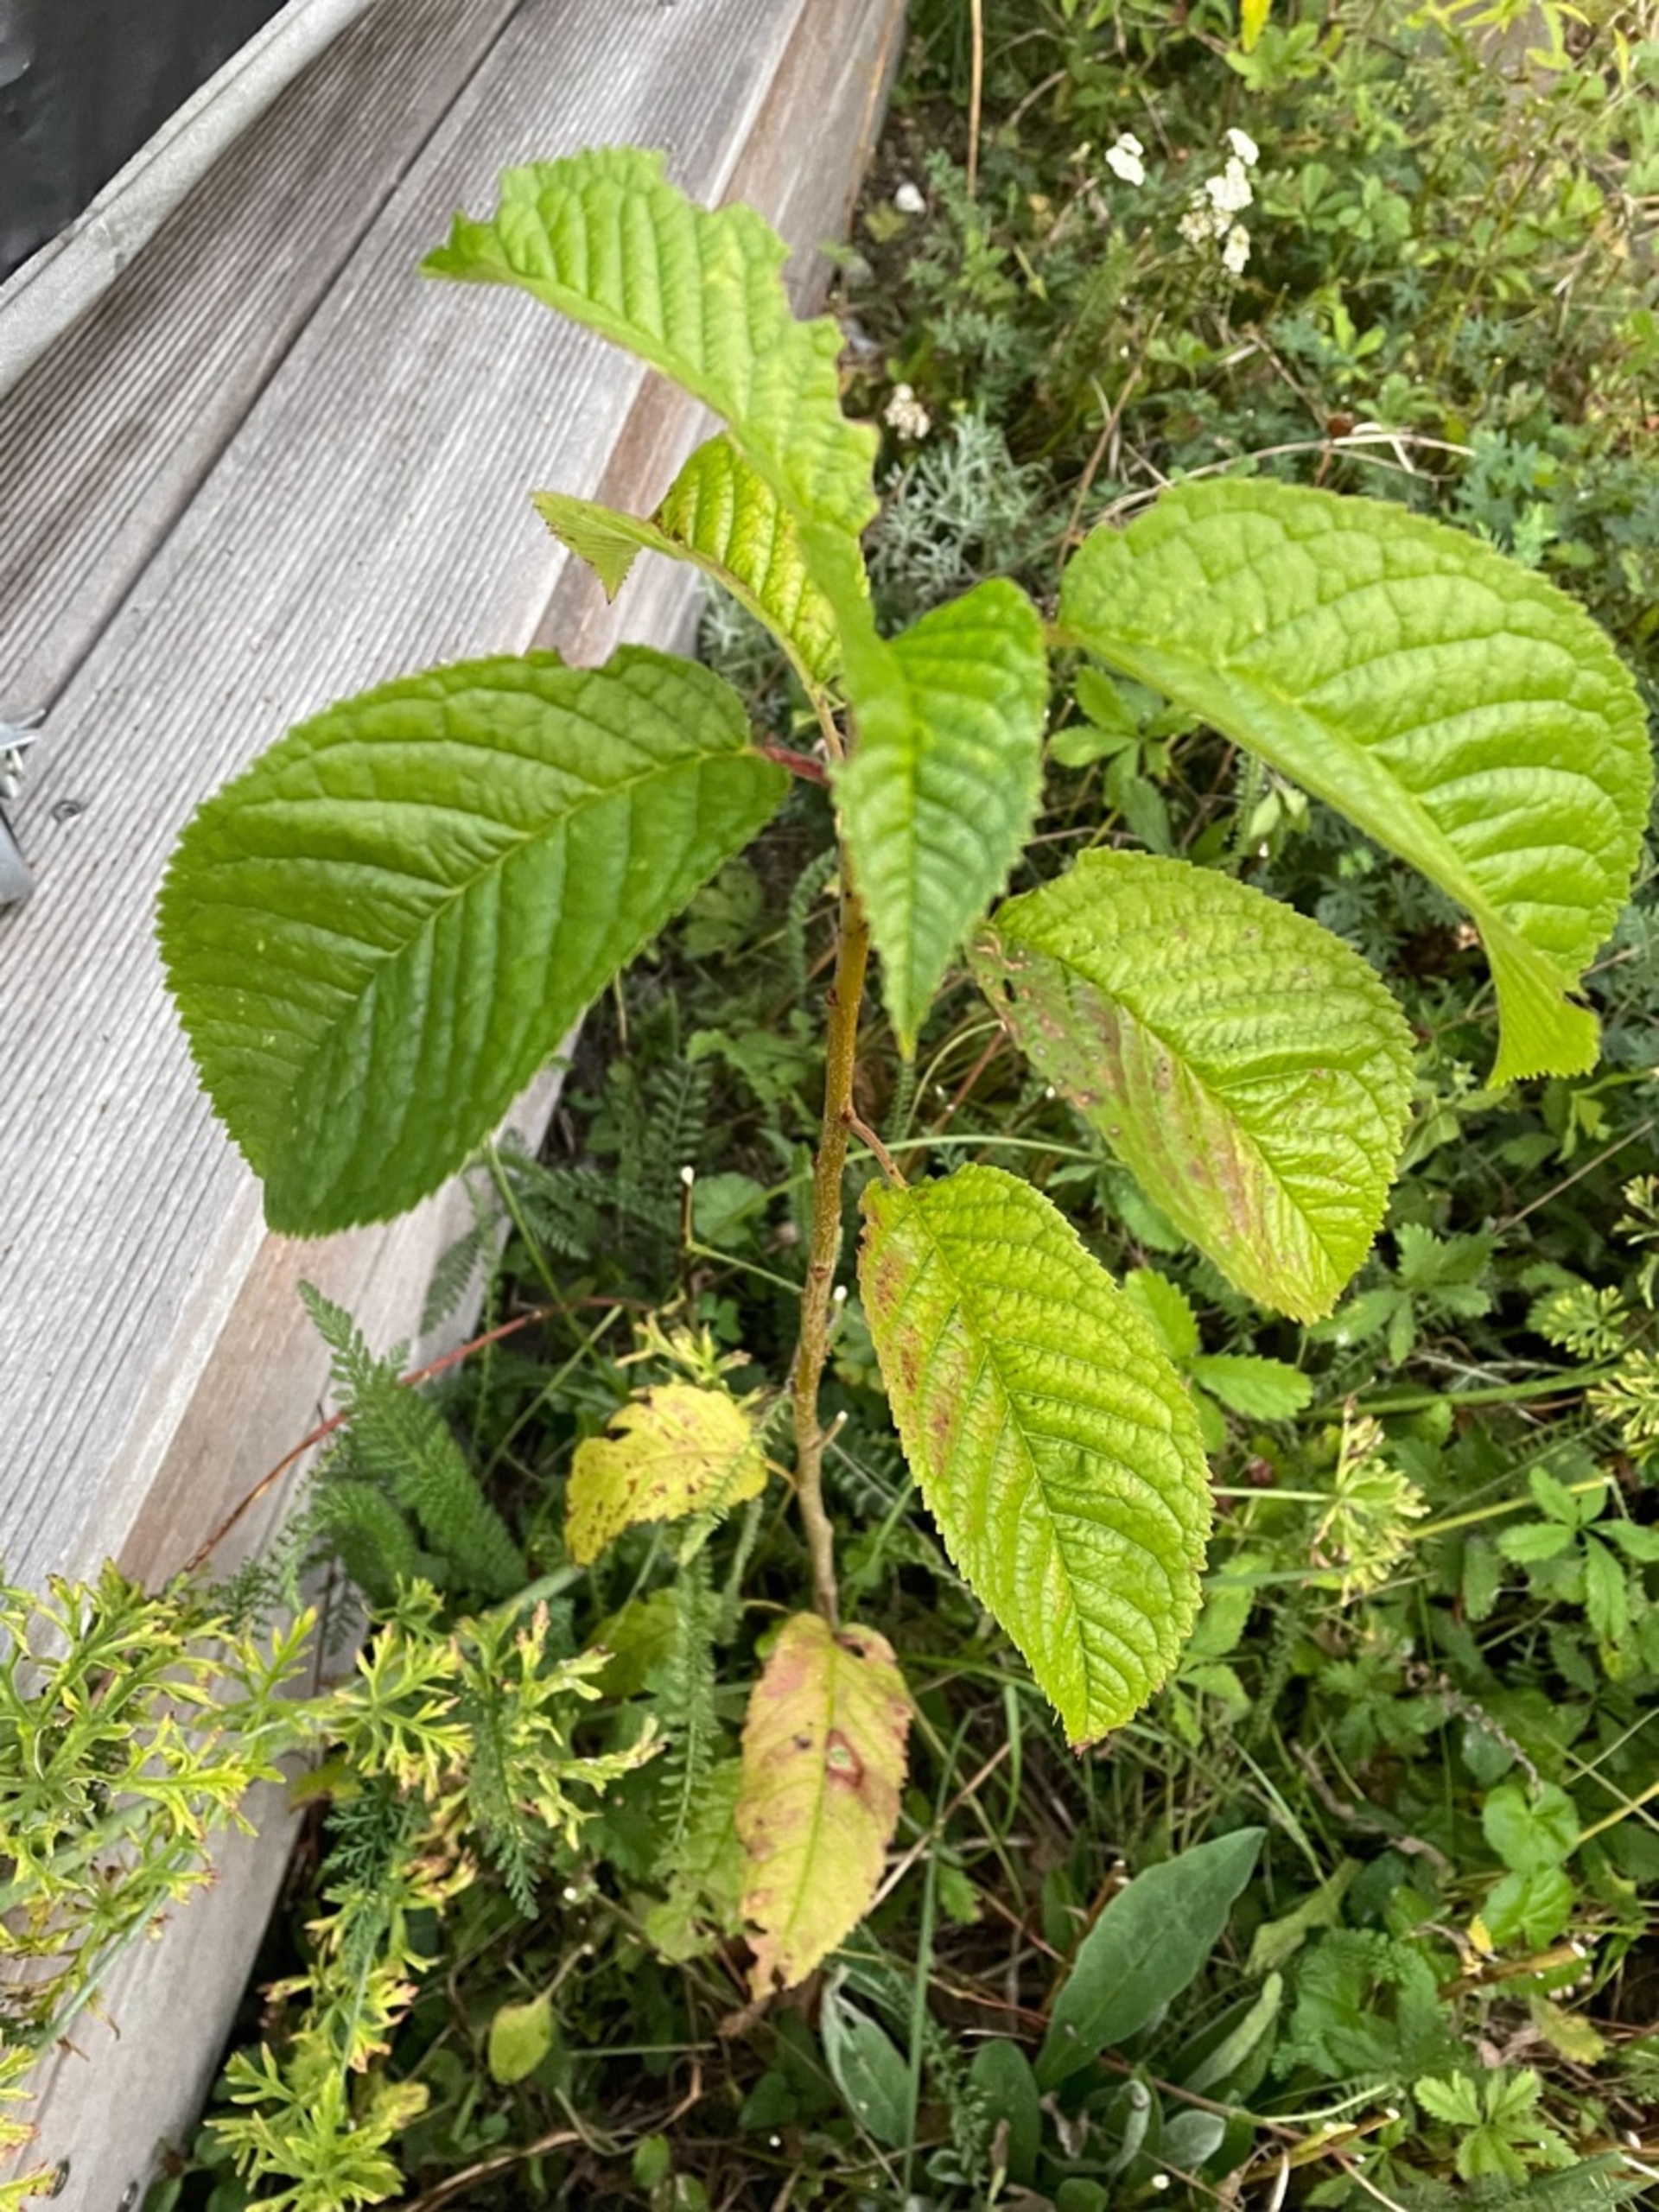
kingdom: Plantae
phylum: Tracheophyta
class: Magnoliopsida
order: Rosales
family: Rosaceae
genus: Prunus
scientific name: Prunus avium
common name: Fugle-kirsebær
